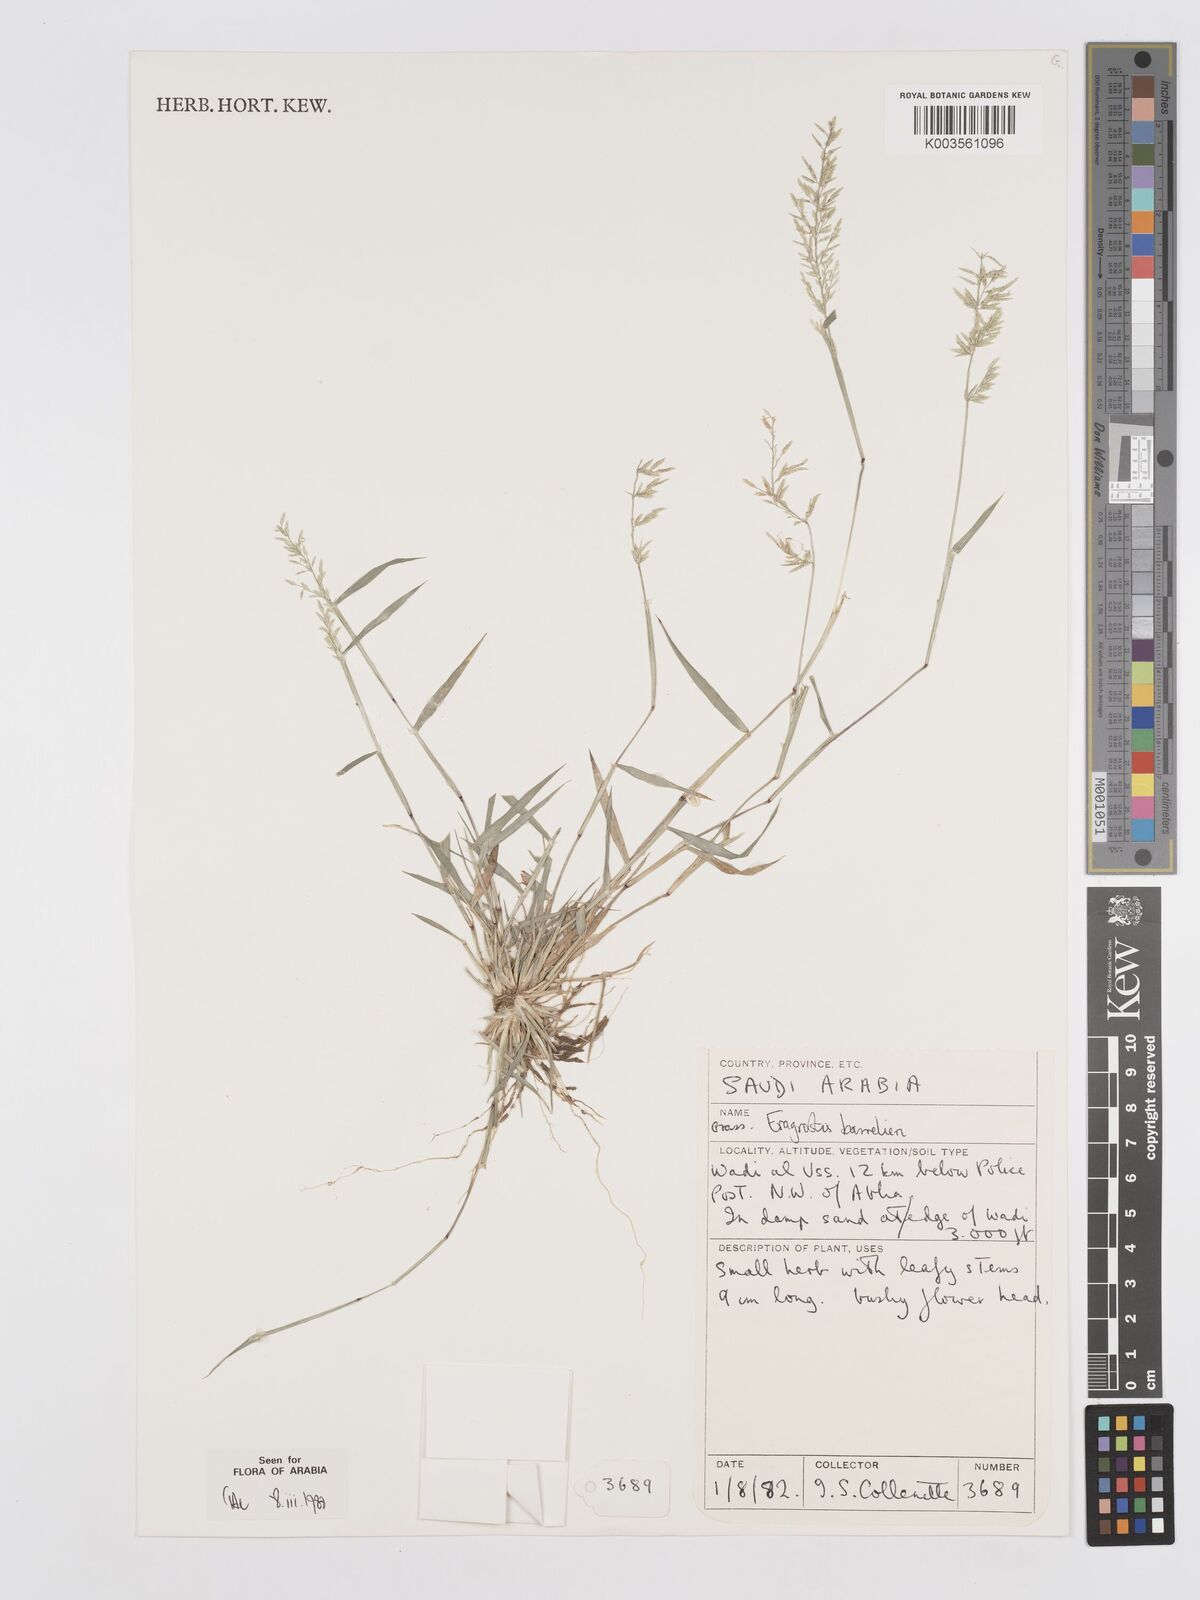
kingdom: Plantae
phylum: Tracheophyta
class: Liliopsida
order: Poales
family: Poaceae
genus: Eragrostis
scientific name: Eragrostis barrelieri
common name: Mediterranean lovegrass
